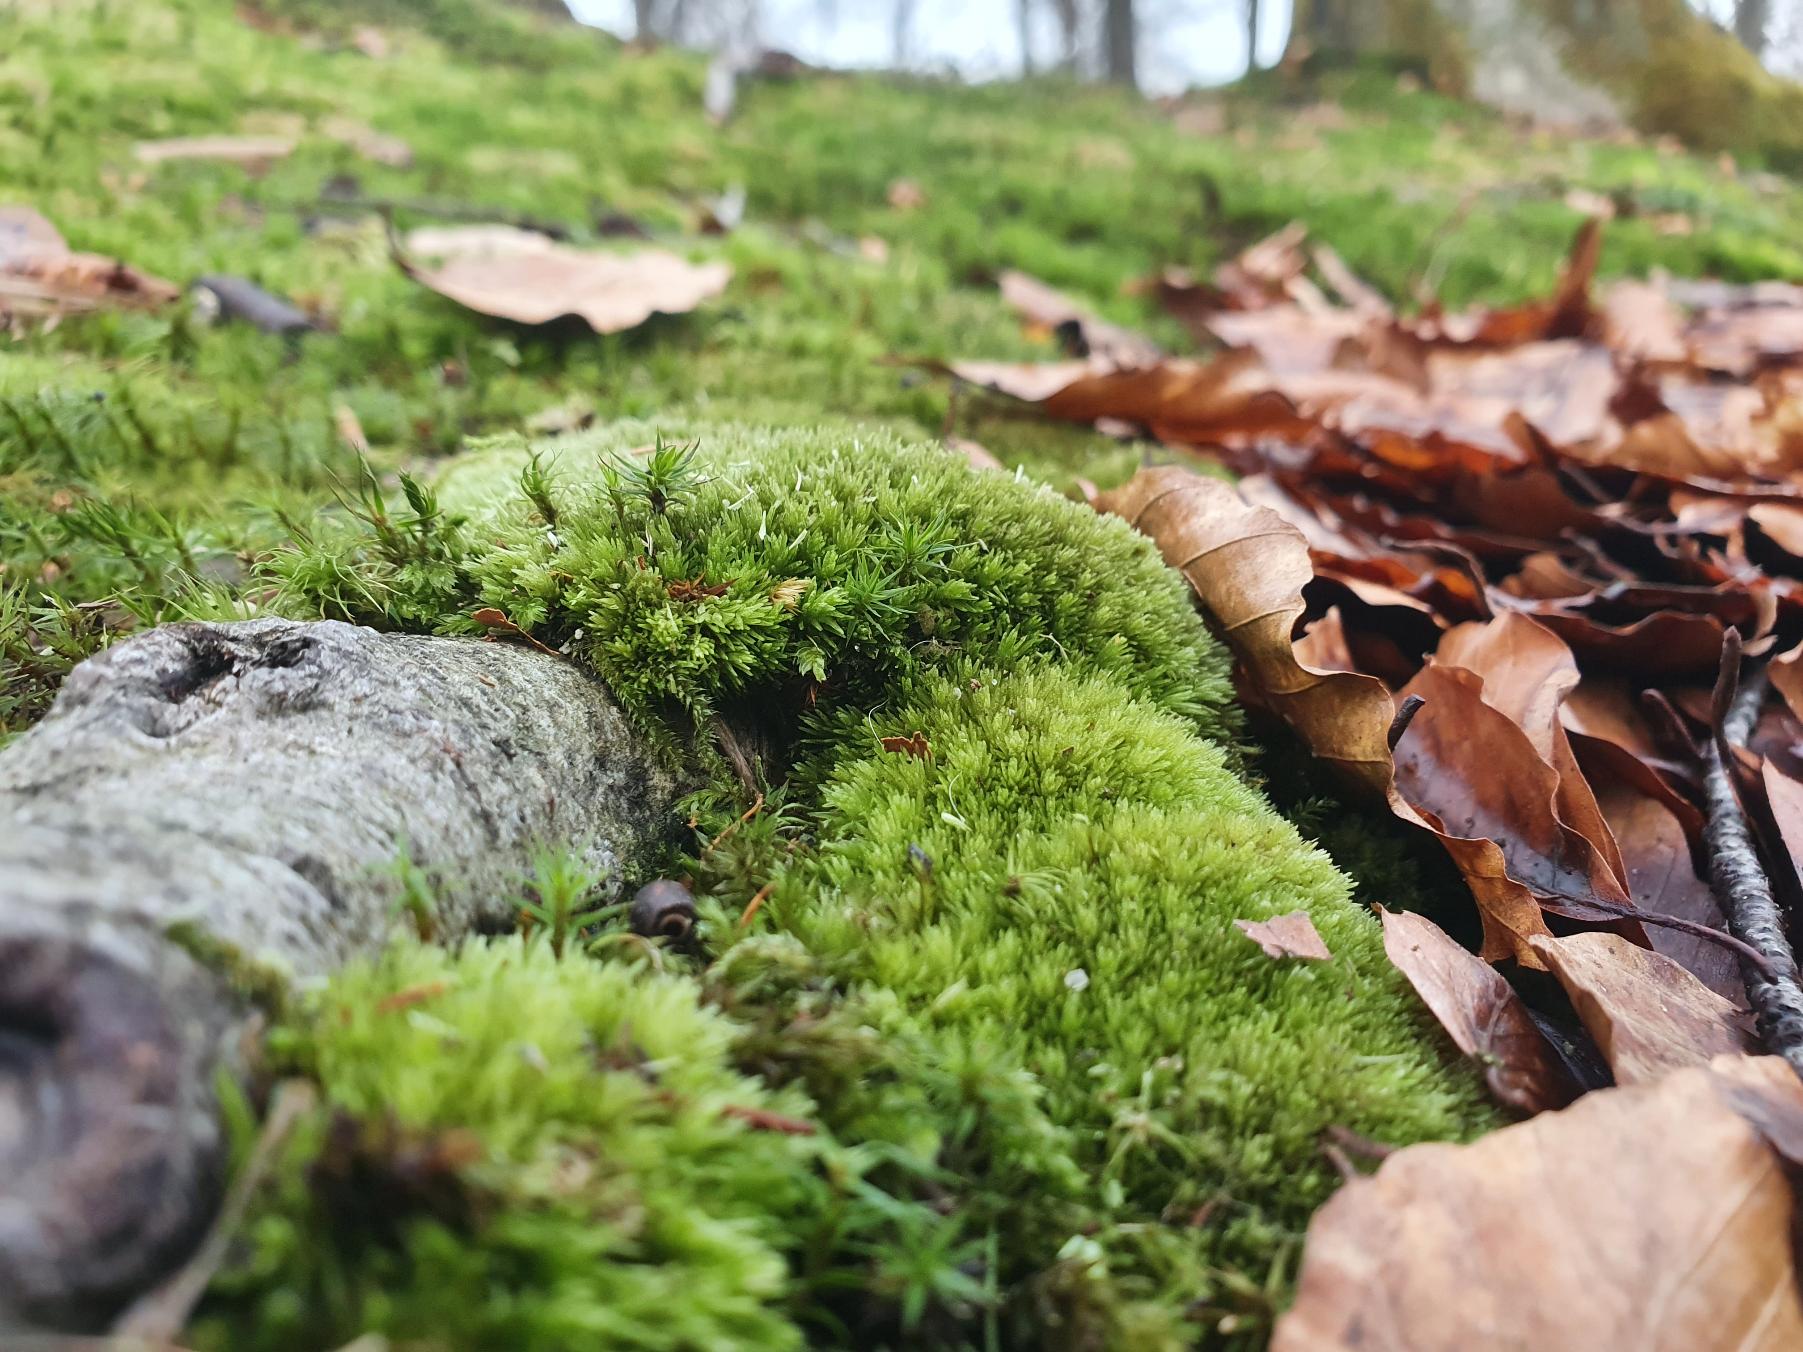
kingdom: Plantae
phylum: Bryophyta
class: Bryopsida
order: Dicranales
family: Leucobryaceae
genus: Leucobryum
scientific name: Leucobryum glaucum
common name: Almindelig hvidmos
